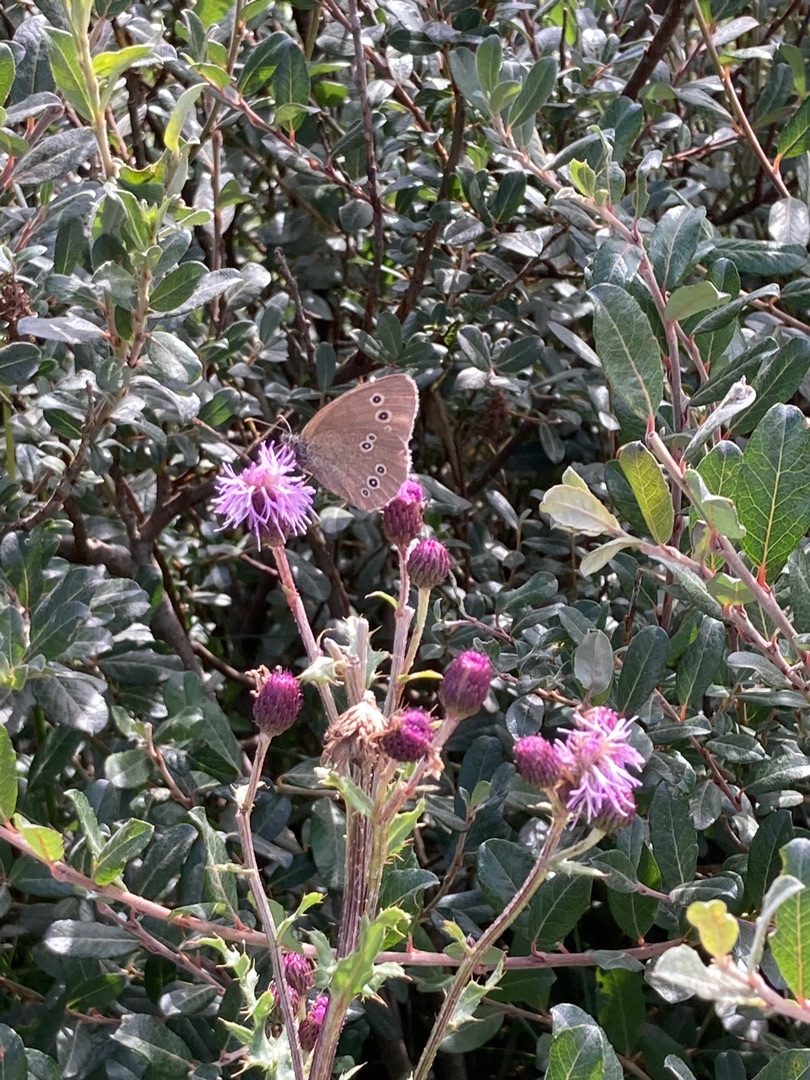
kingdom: Animalia
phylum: Arthropoda
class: Insecta
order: Lepidoptera
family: Nymphalidae
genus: Aphantopus
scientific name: Aphantopus hyperantus
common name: Engrandøje
